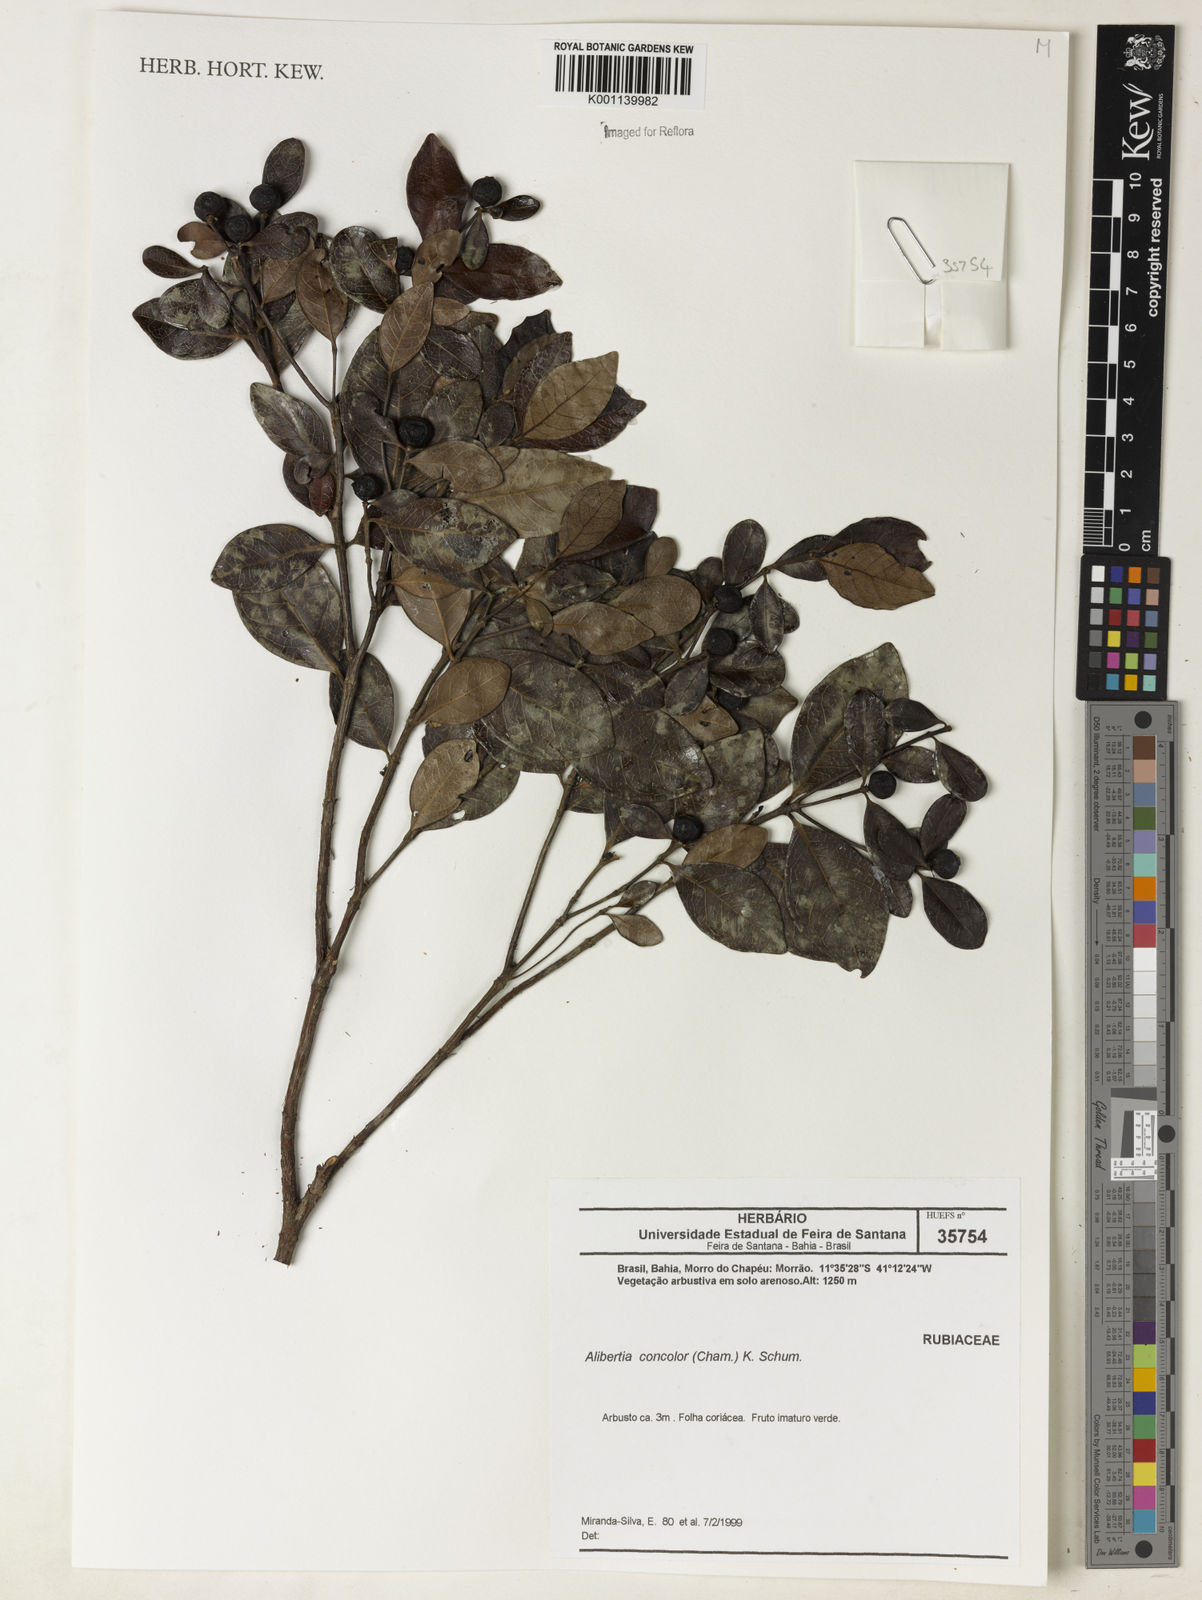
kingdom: Plantae
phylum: Tracheophyta
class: Magnoliopsida
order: Gentianales
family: Rubiaceae
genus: Cordiera
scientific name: Cordiera concolor
